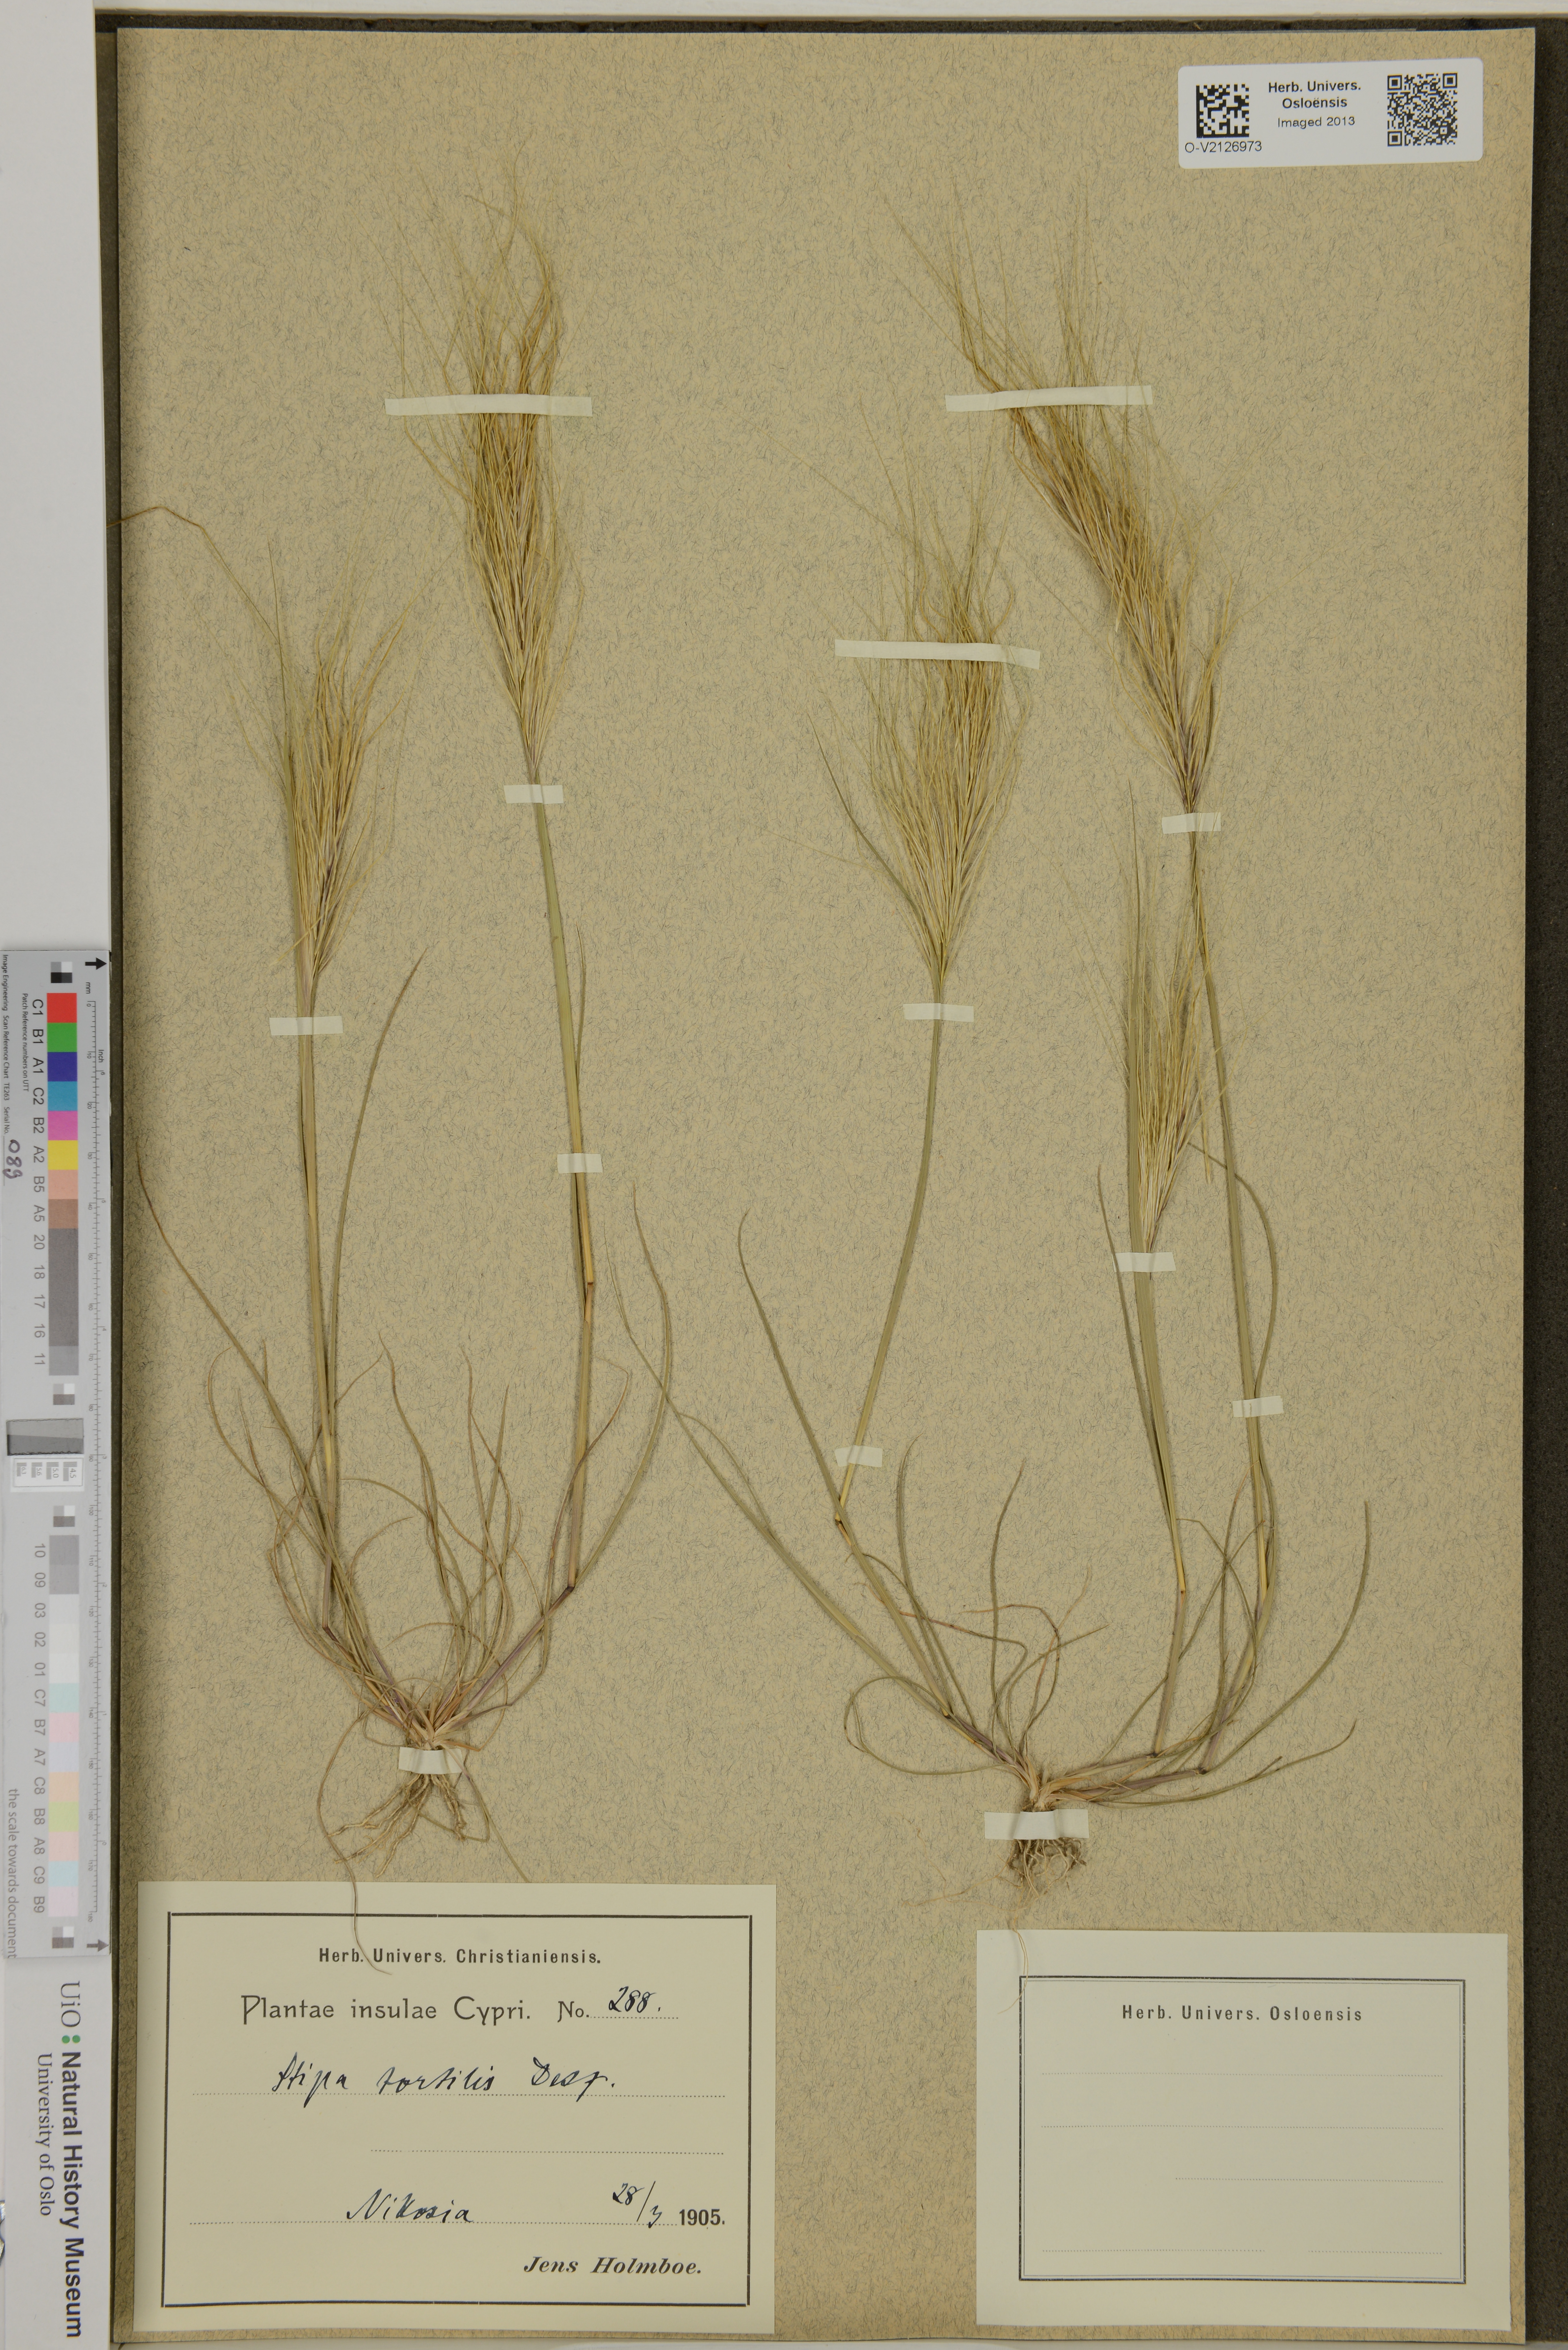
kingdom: Plantae
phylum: Tracheophyta
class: Liliopsida
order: Poales
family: Poaceae
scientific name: Poaceae
